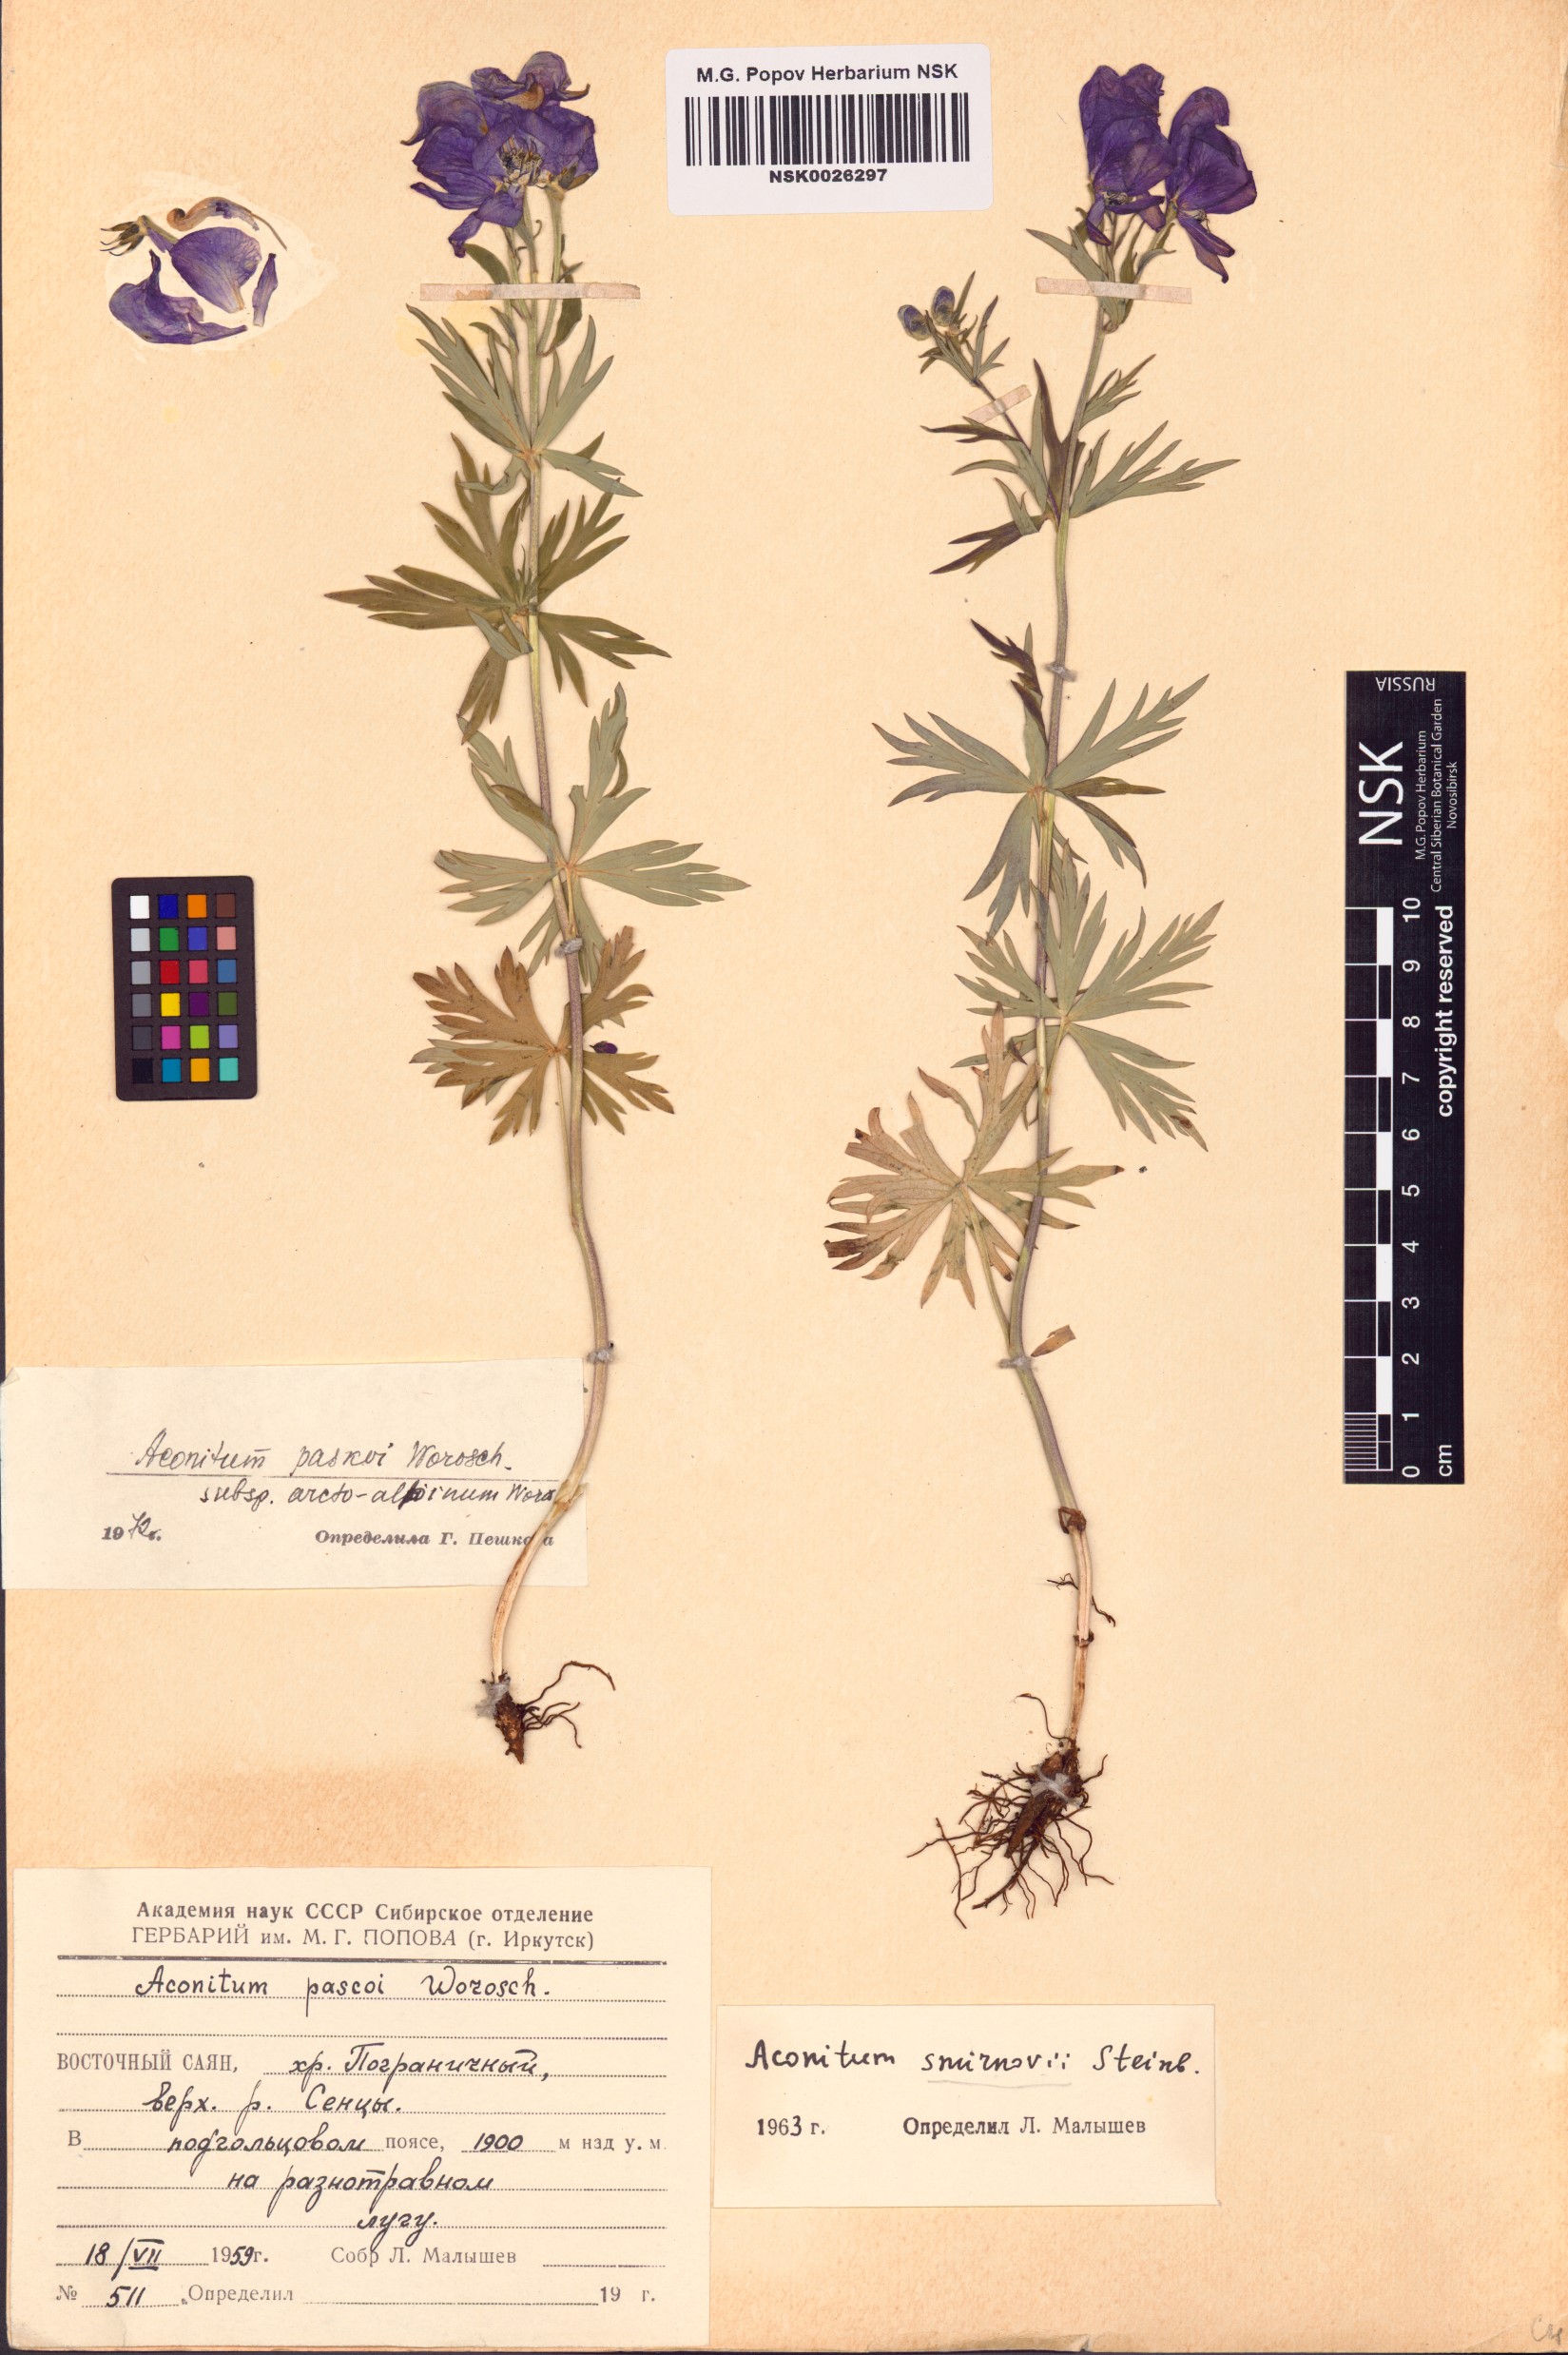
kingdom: Plantae
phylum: Tracheophyta
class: Magnoliopsida
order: Ranunculales
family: Ranunculaceae
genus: Aconitum
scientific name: Aconitum pascoi
